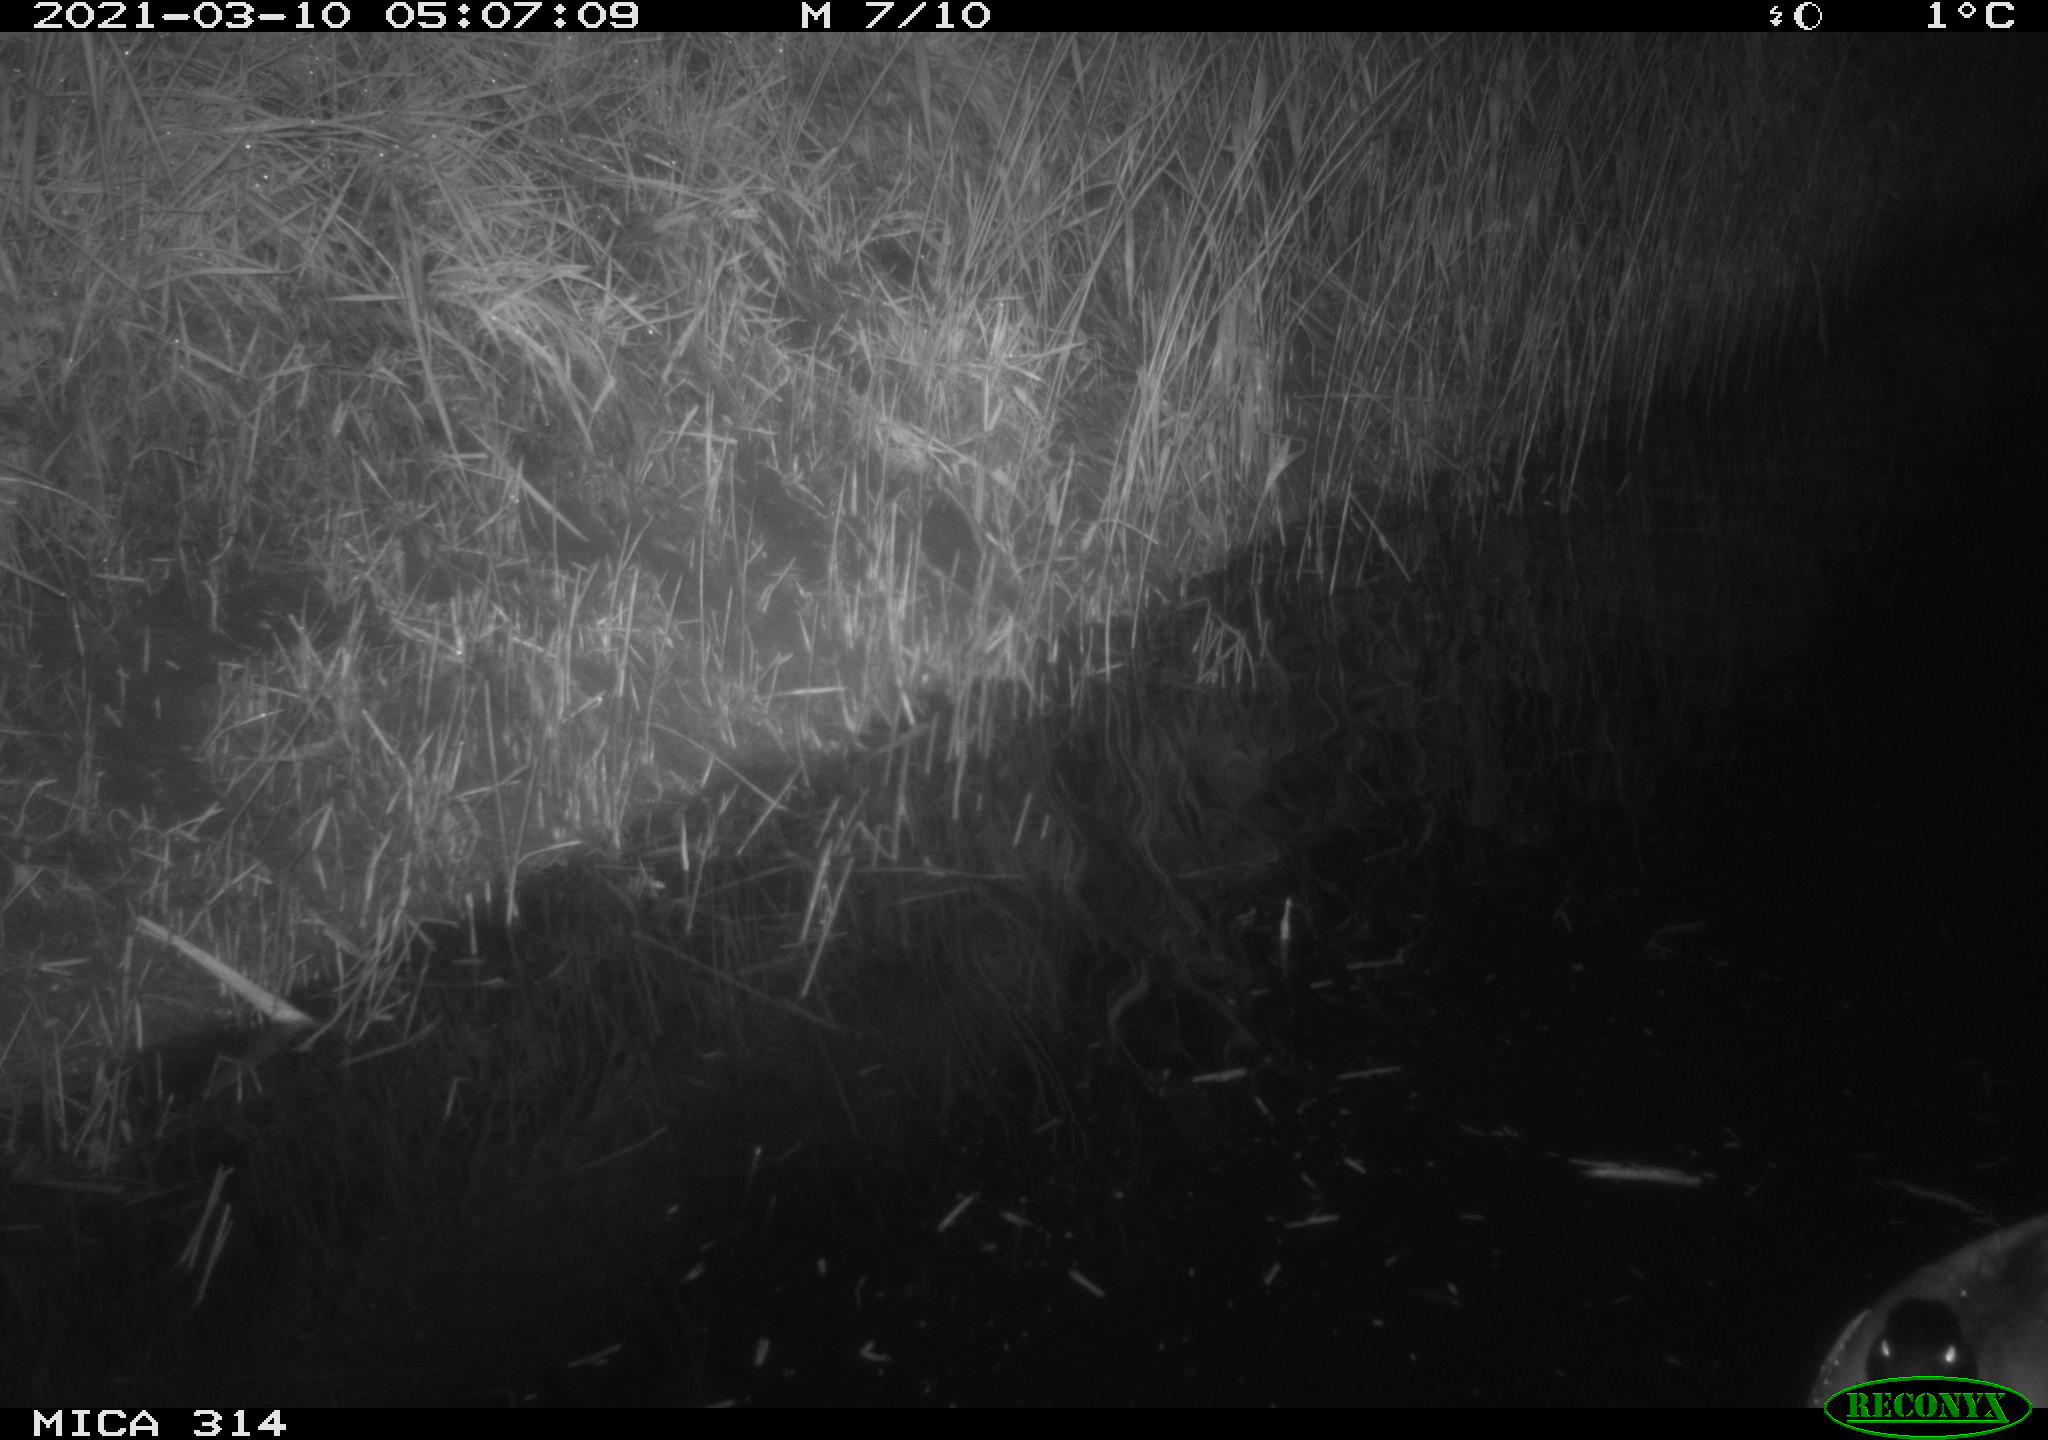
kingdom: Animalia
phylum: Chordata
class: Aves
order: Anseriformes
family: Anatidae
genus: Anas
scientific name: Anas platyrhynchos
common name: Mallard
